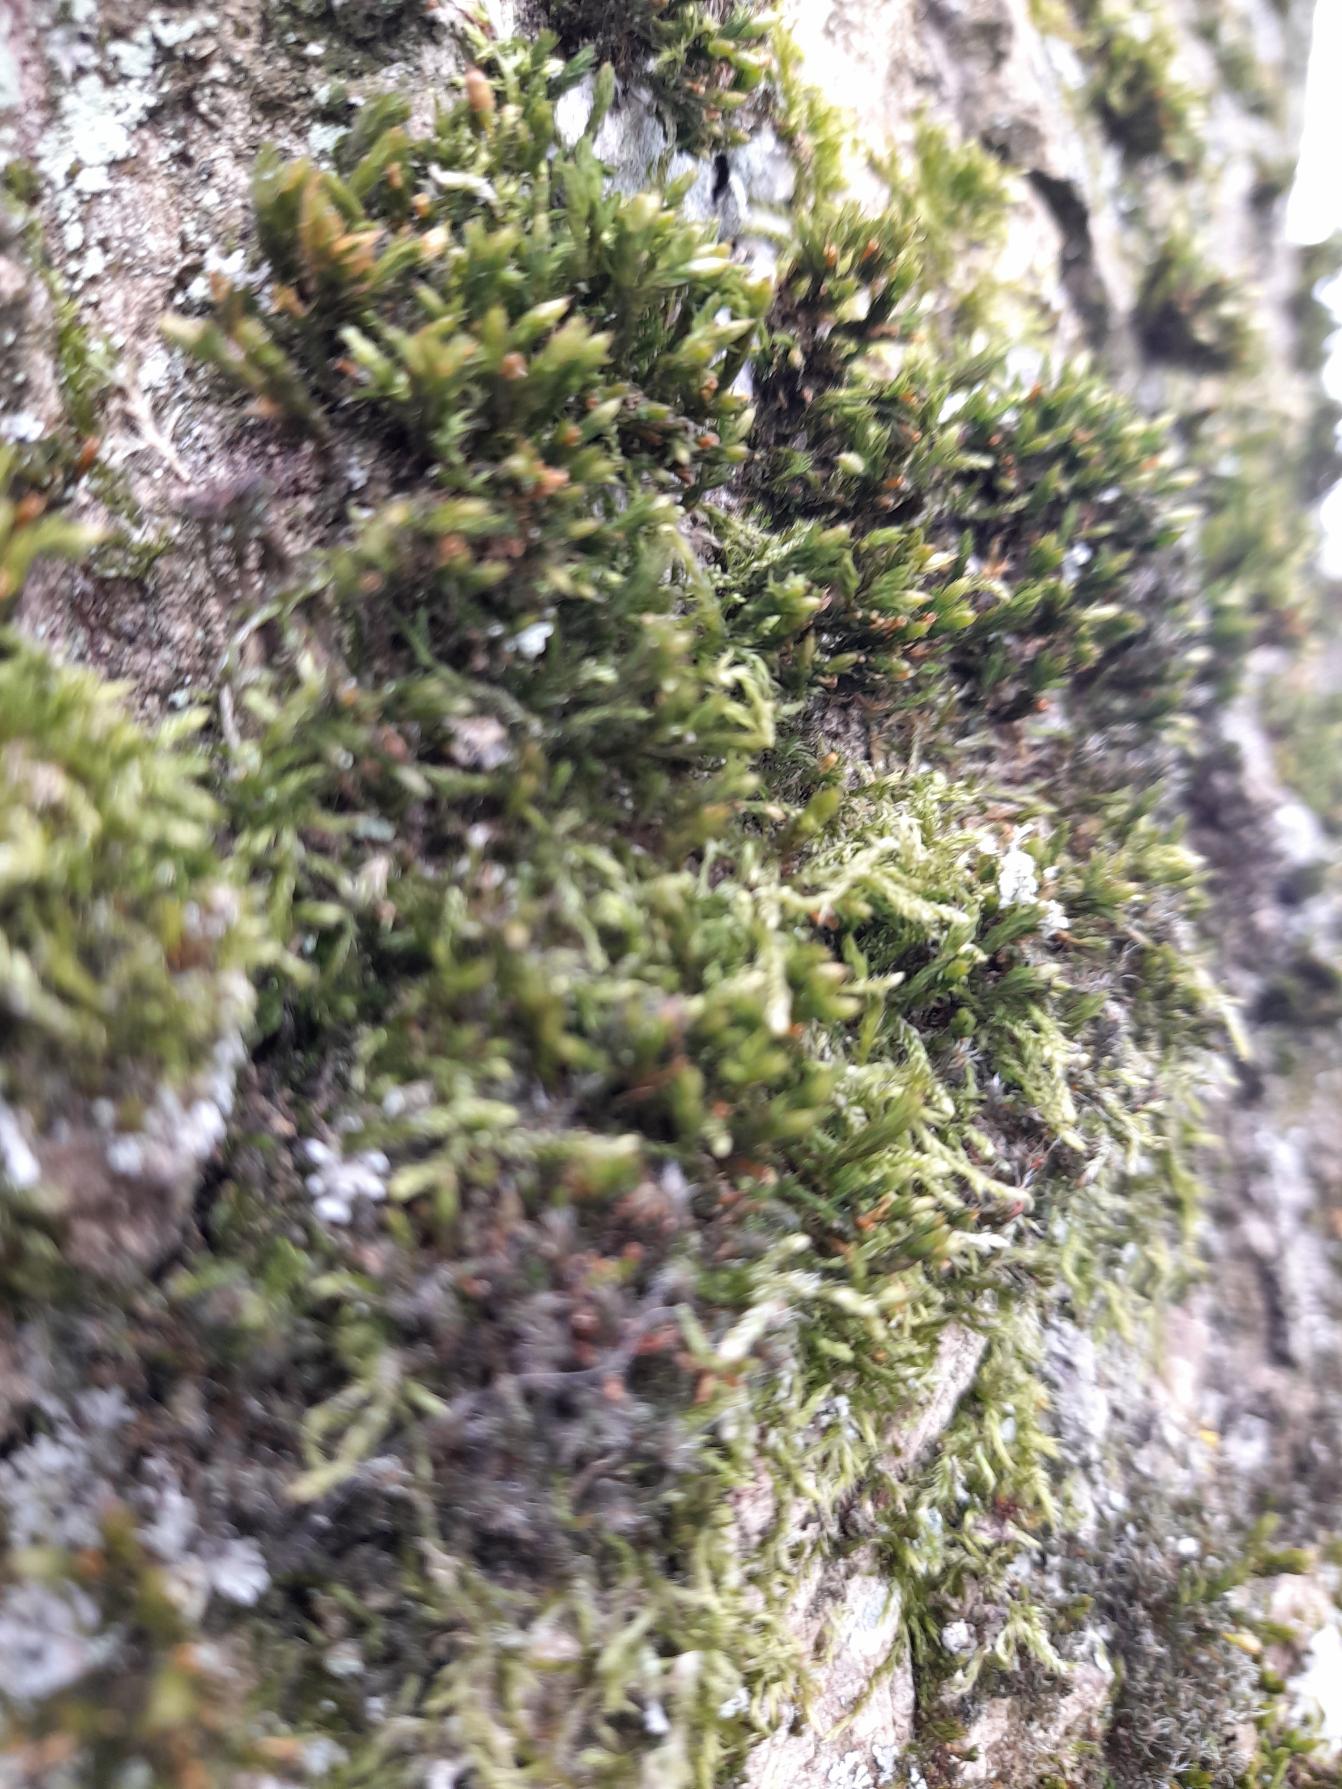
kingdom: Plantae
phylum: Bryophyta
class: Bryopsida
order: Orthotrichales
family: Orthotrichaceae
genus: Lewinskya
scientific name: Lewinskya affinis
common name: Almindelig furehætte
